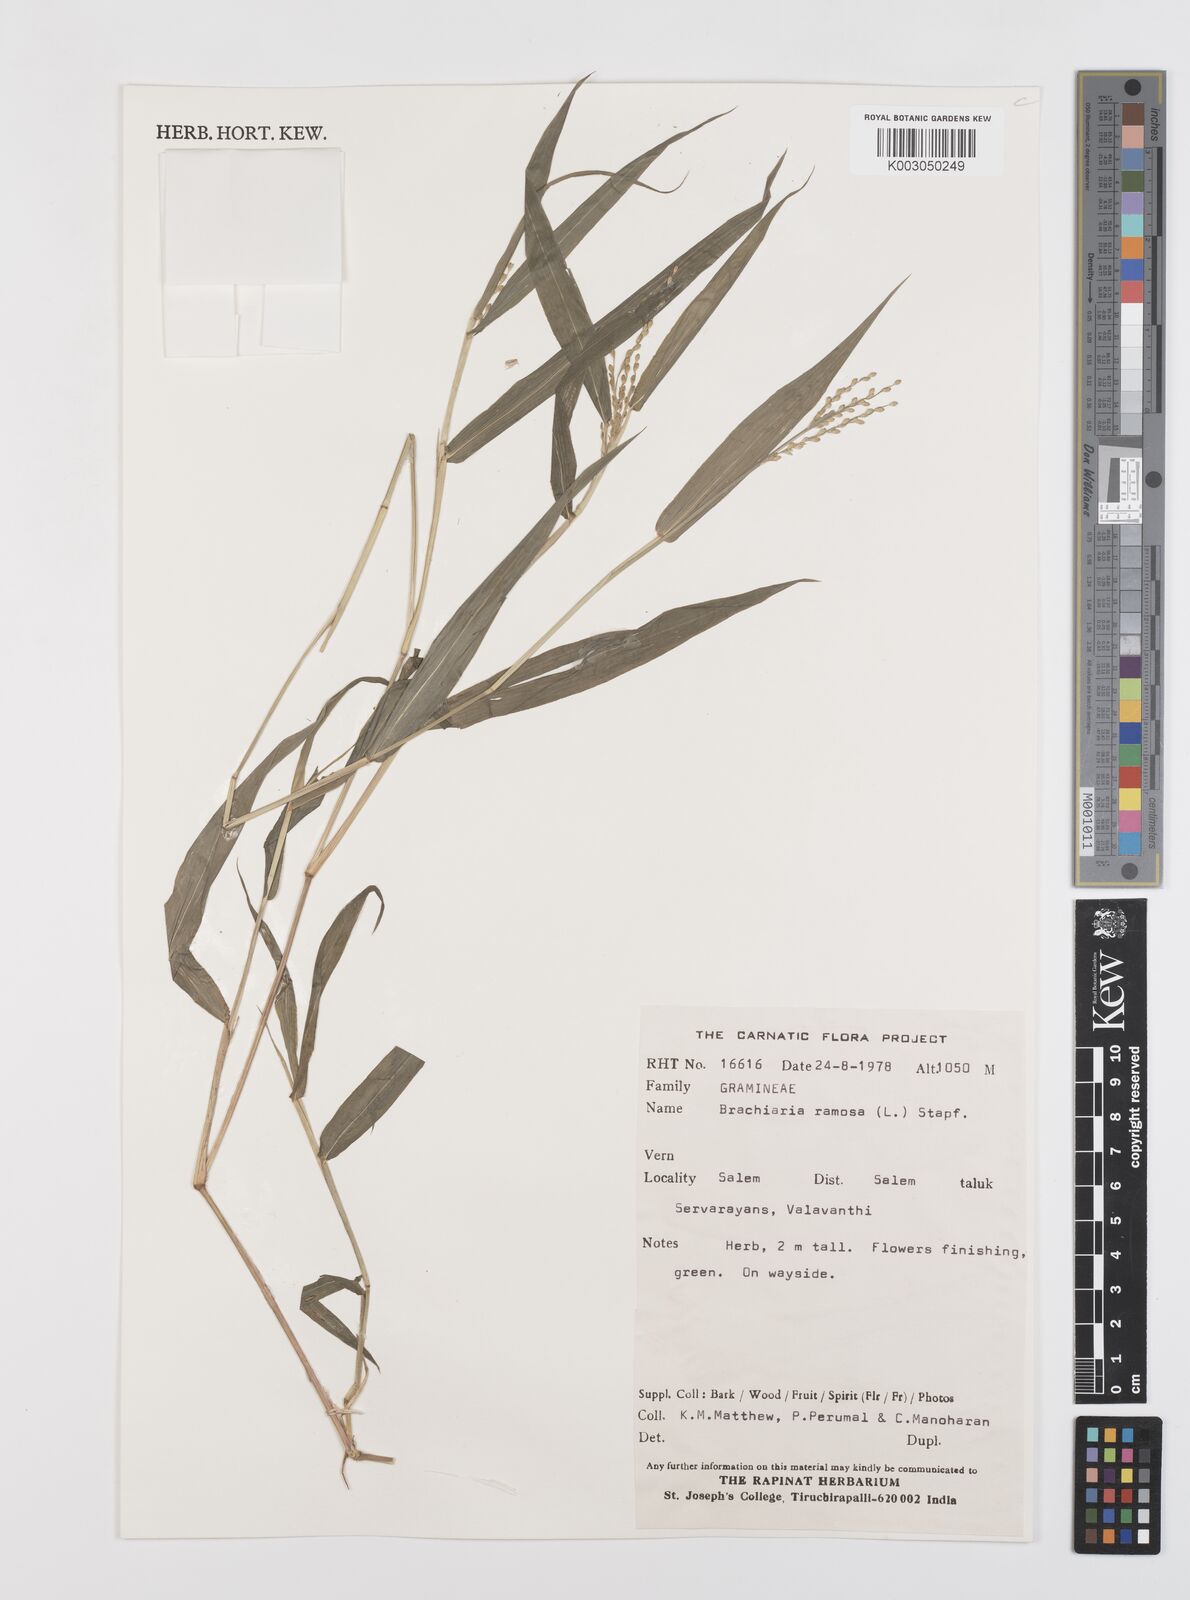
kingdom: Plantae
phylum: Tracheophyta
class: Liliopsida
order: Poales
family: Poaceae
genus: Urochloa
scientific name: Urochloa ramosa
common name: Browntop millet
